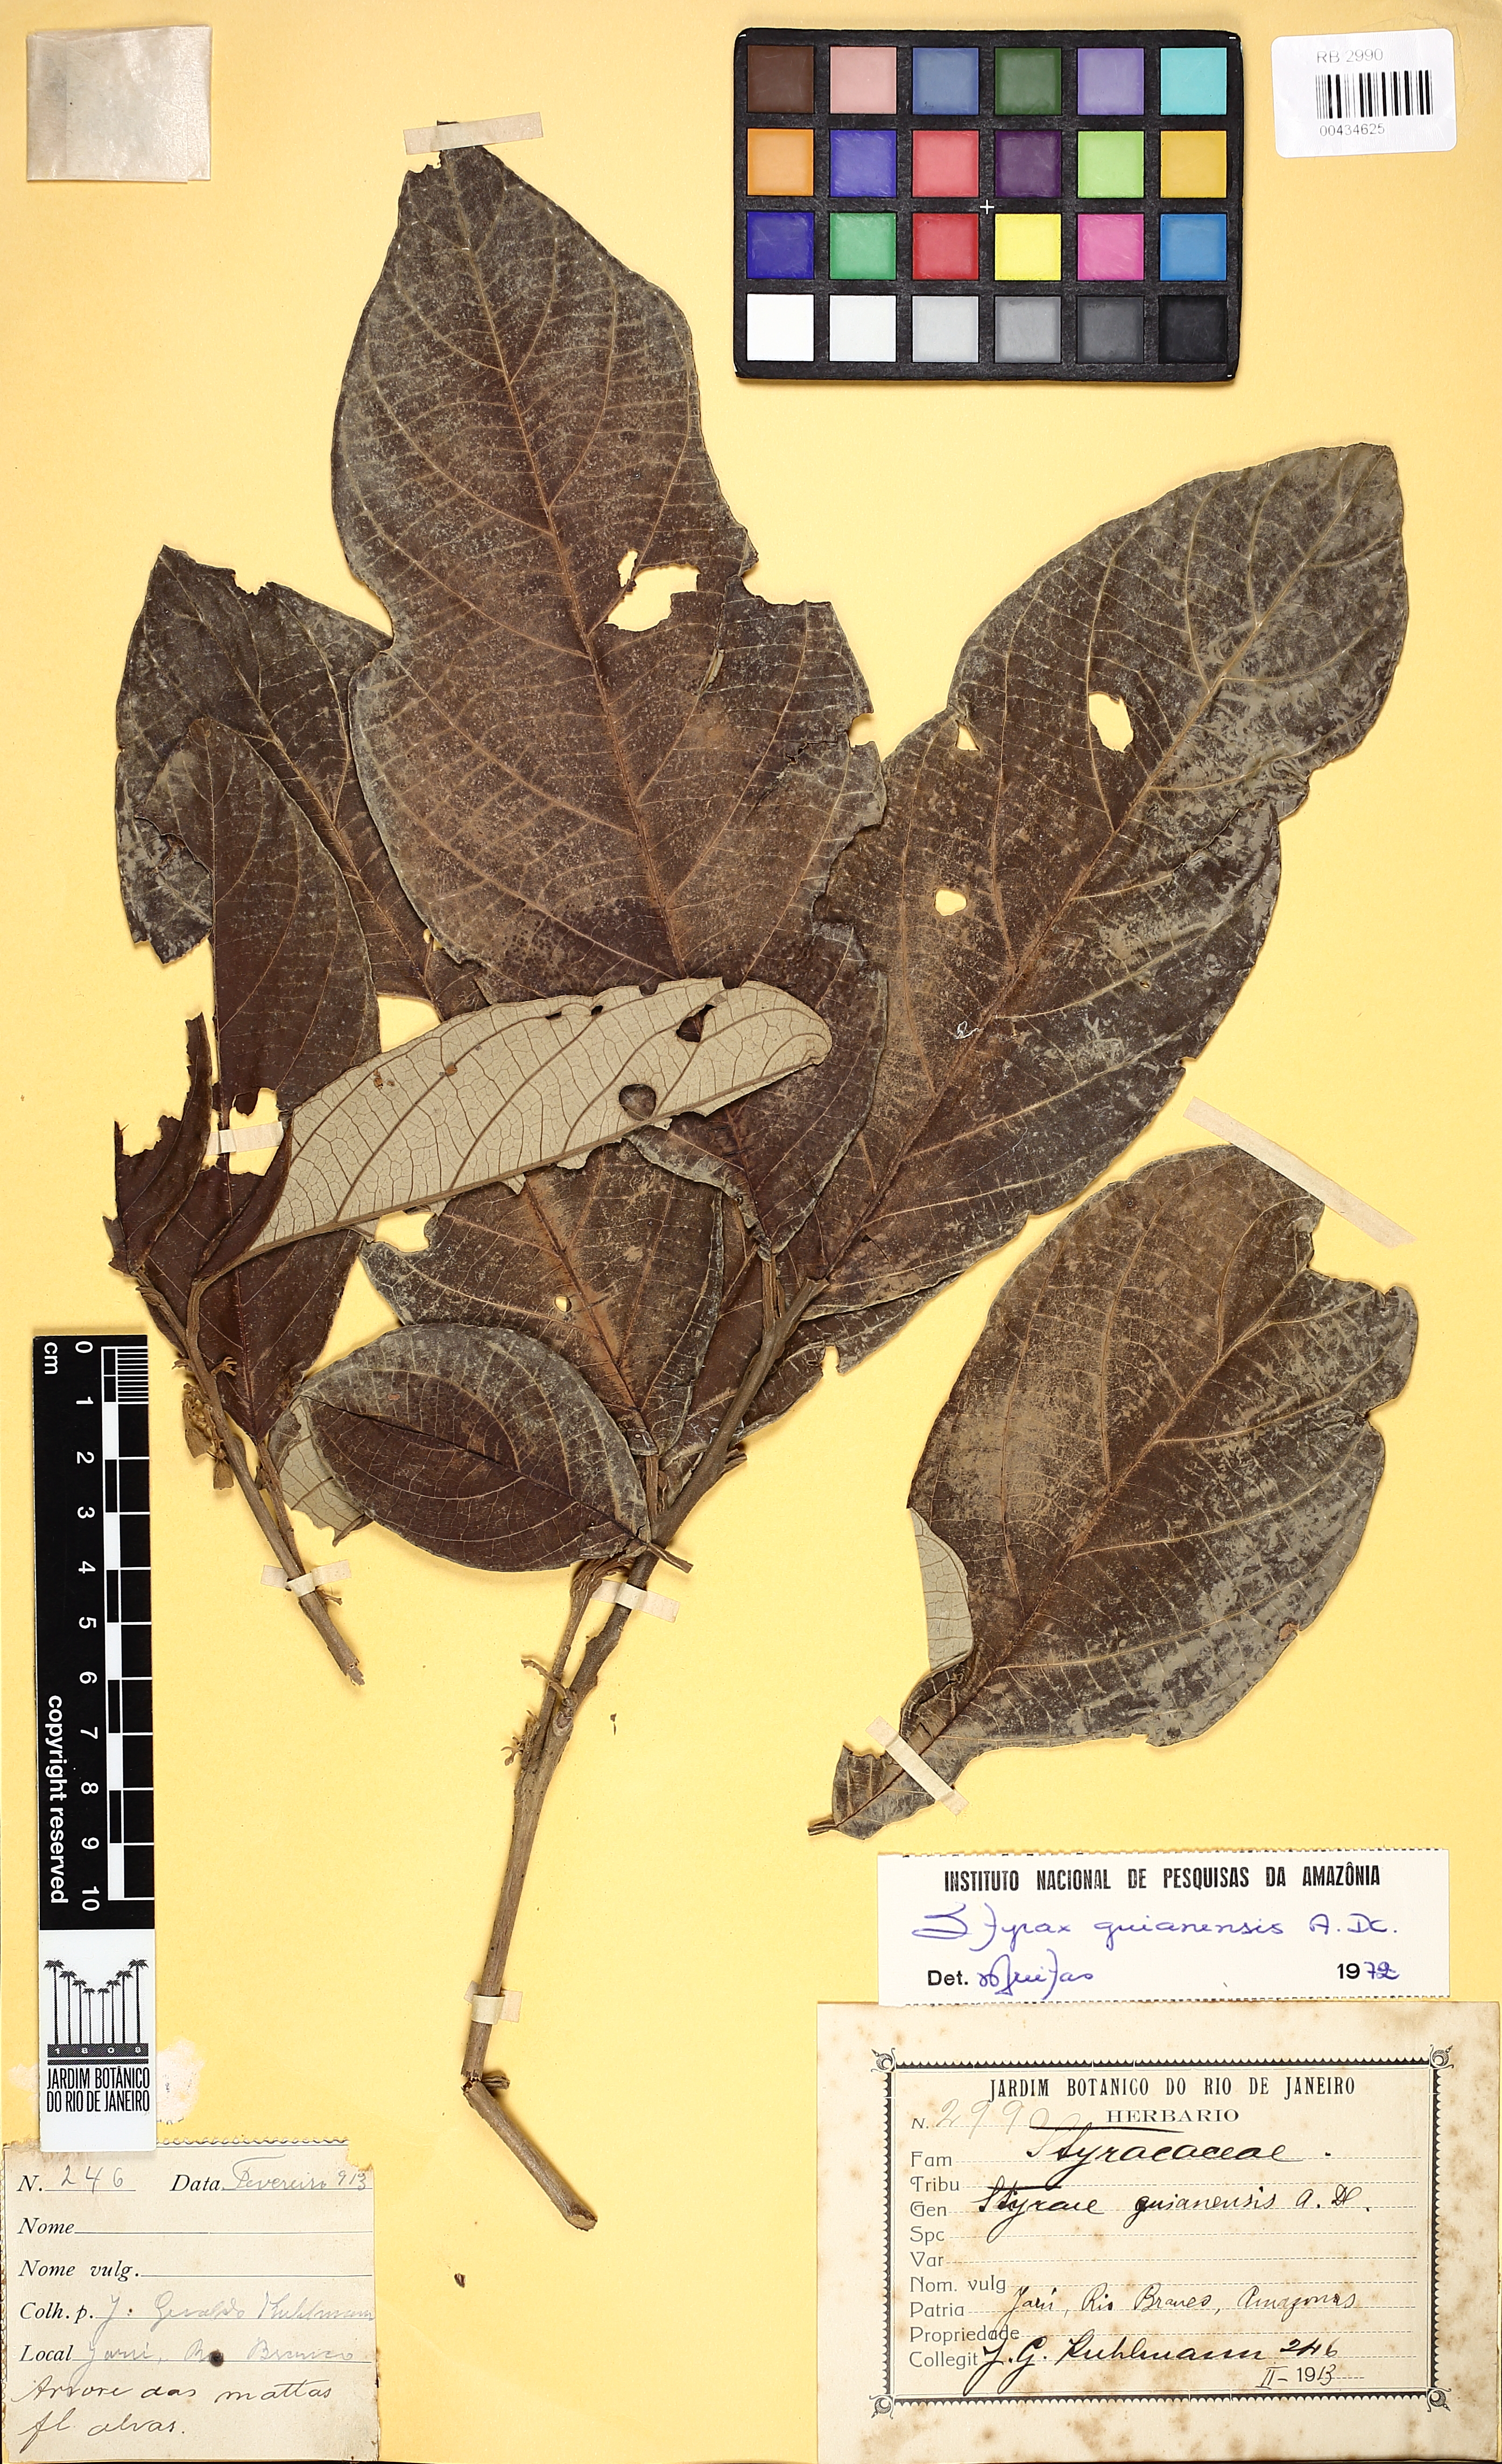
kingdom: Plantae
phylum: Tracheophyta
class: Magnoliopsida
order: Ericales
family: Styracaceae
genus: Styrax
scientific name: Styrax guyanensis
